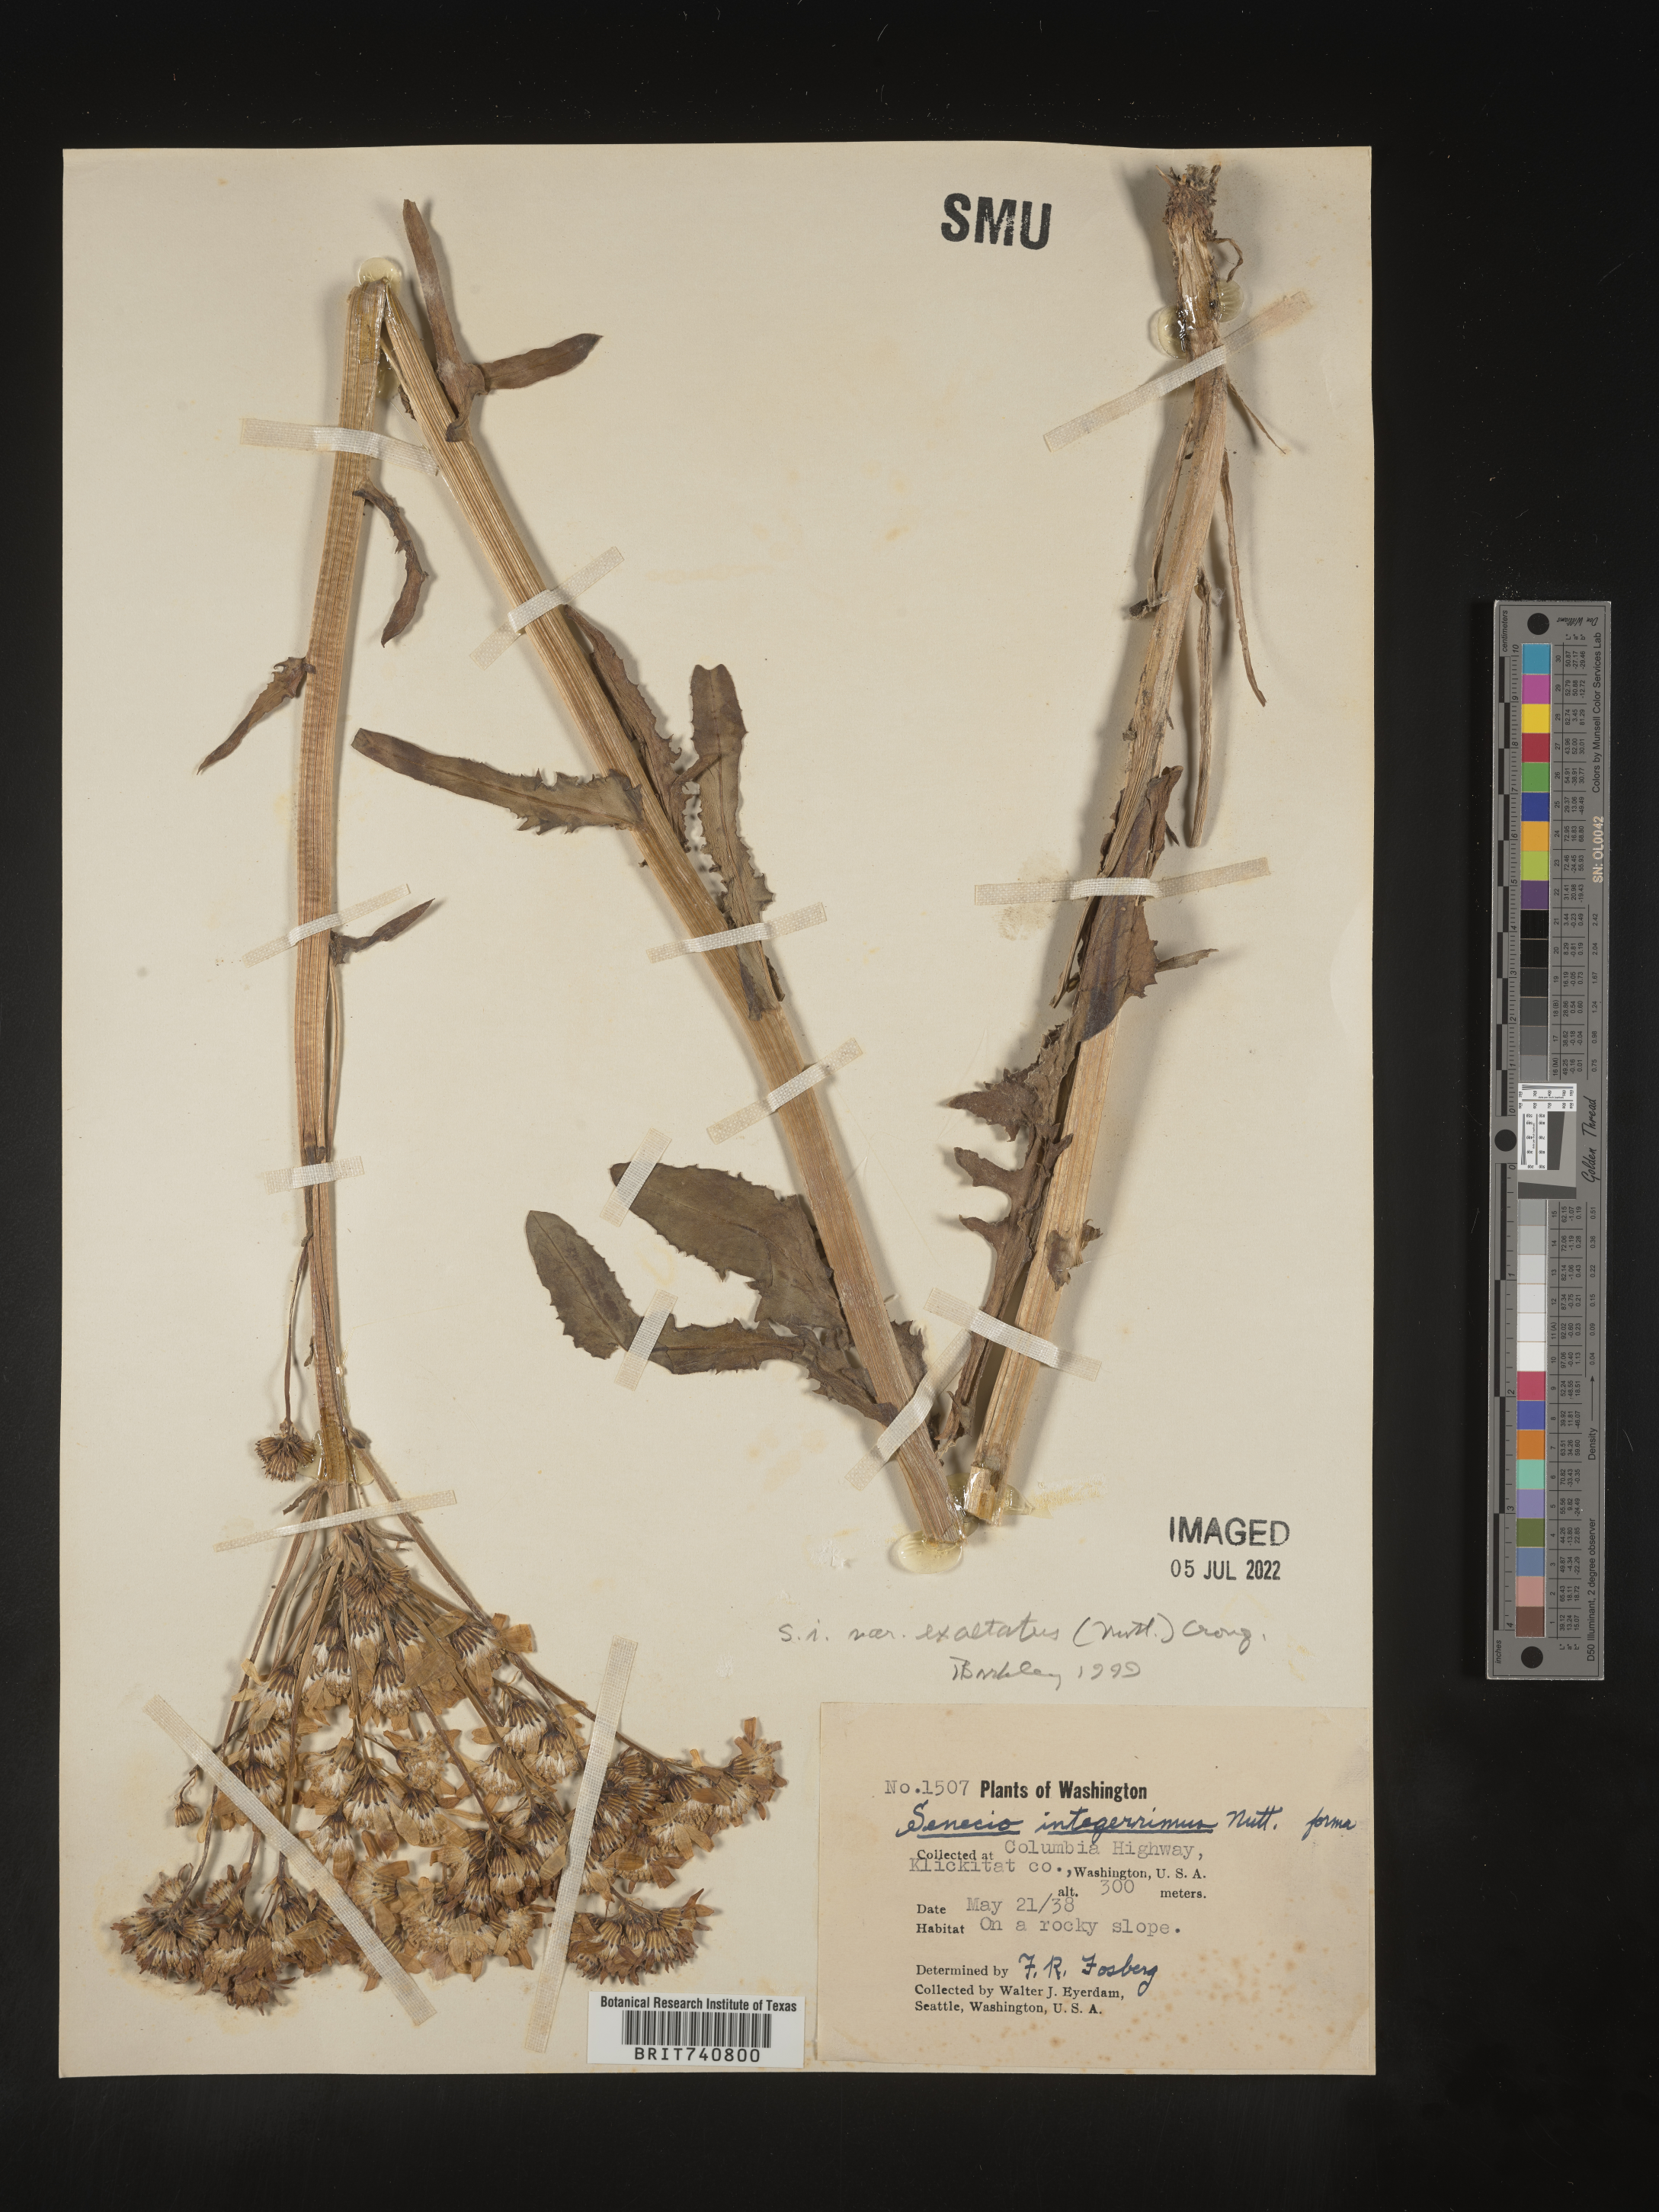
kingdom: Plantae
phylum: Tracheophyta
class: Magnoliopsida
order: Asterales
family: Asteraceae
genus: Senecio
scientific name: Senecio integerrimus
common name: Gaugeplant
